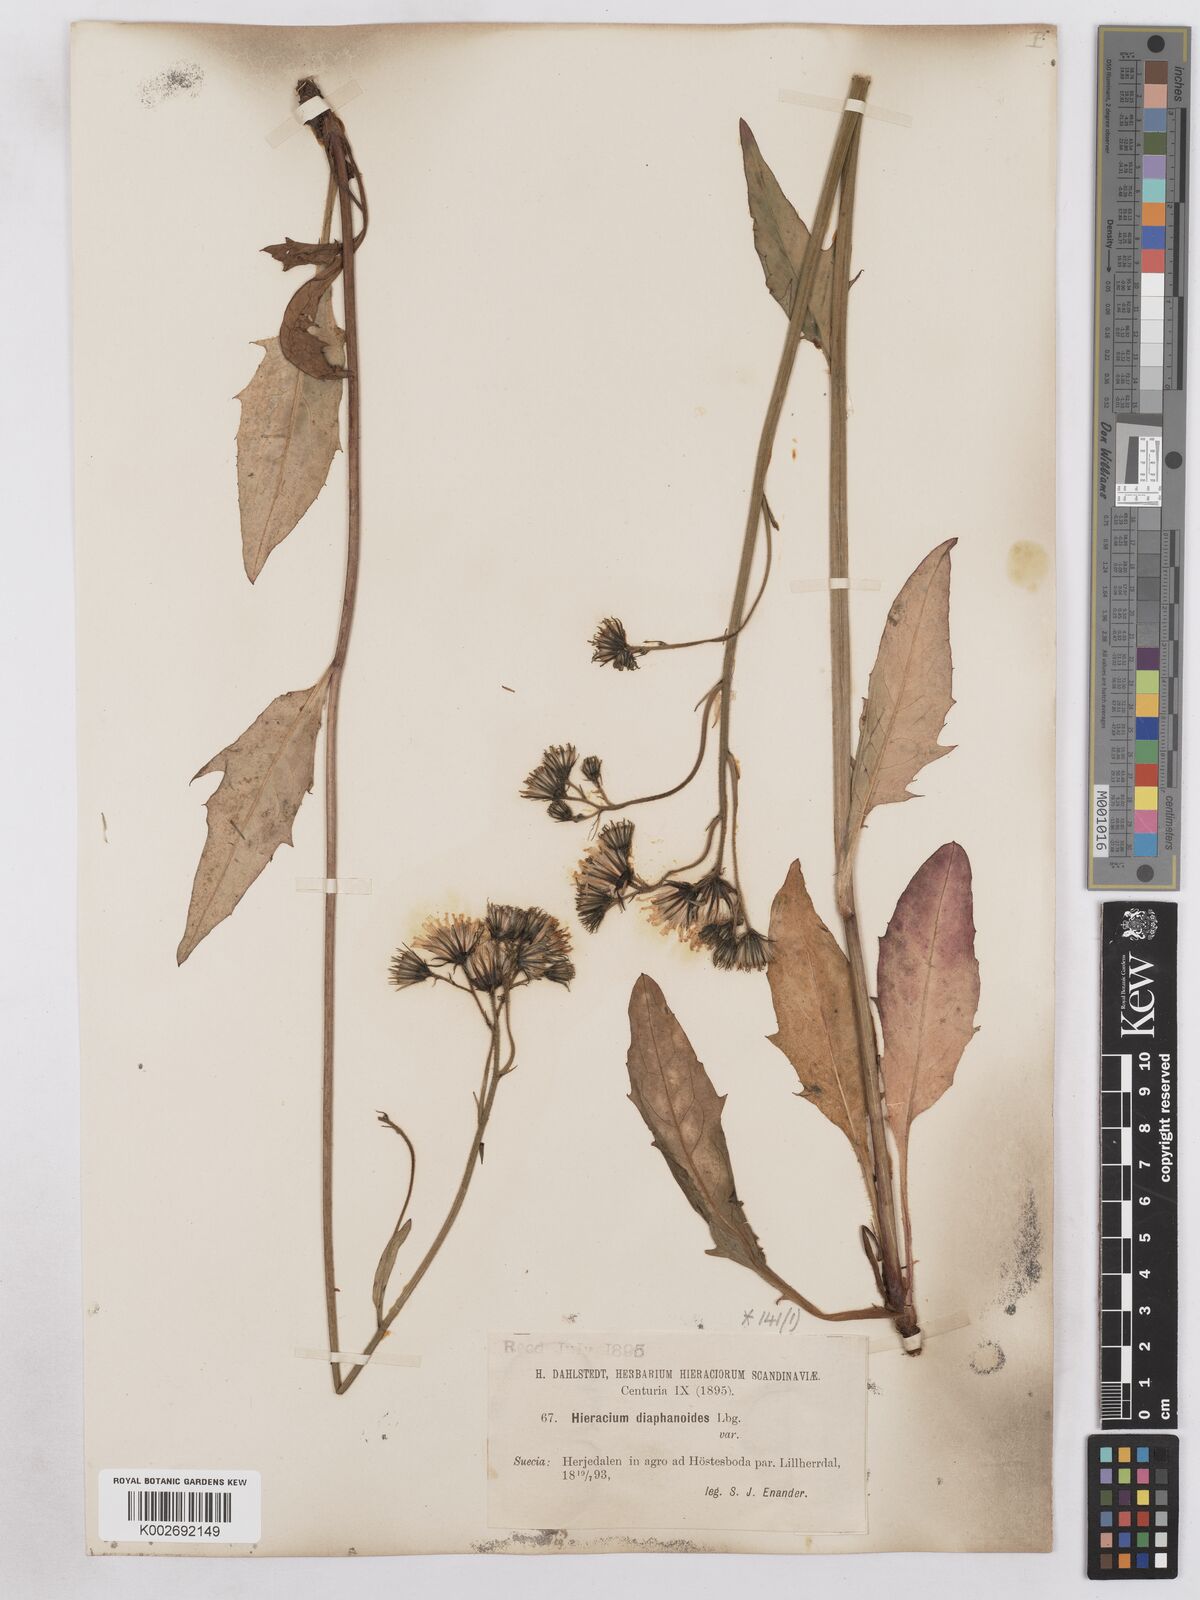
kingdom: Plantae
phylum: Tracheophyta
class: Magnoliopsida
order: Asterales
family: Asteraceae
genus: Hieracium
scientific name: Hieracium diaphanoides
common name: Fine-bracted hawkweed
